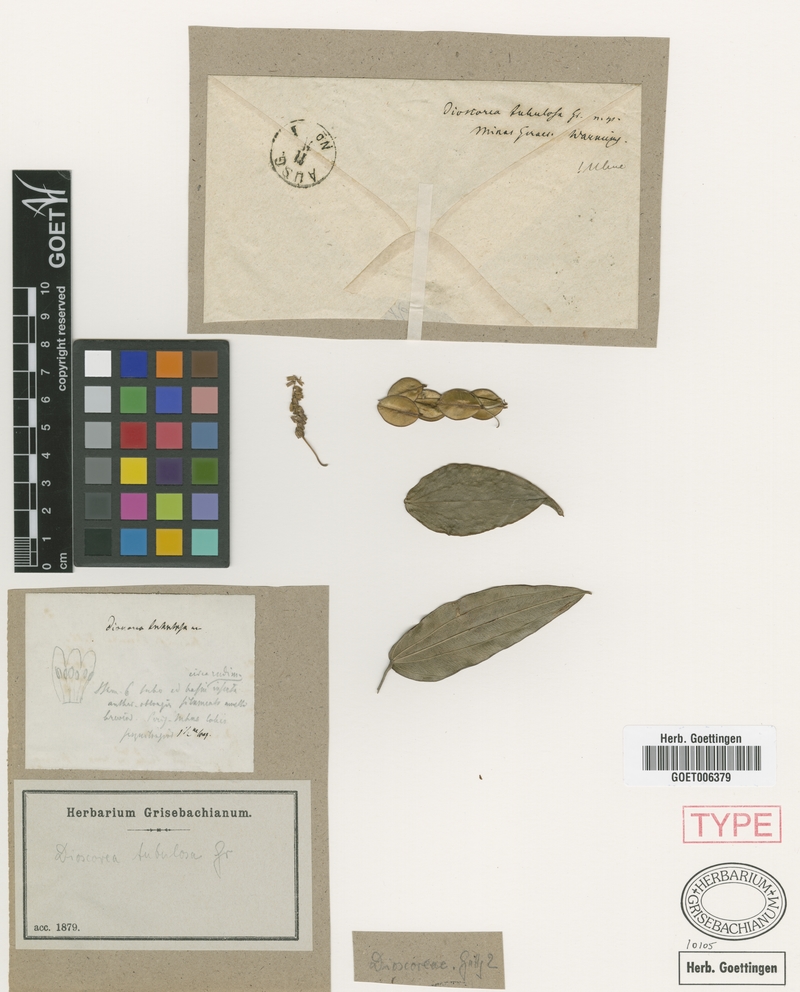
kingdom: Plantae
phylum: Tracheophyta
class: Liliopsida
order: Dioscoreales
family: Dioscoreaceae
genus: Dioscorea
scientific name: Dioscorea tubulosa
